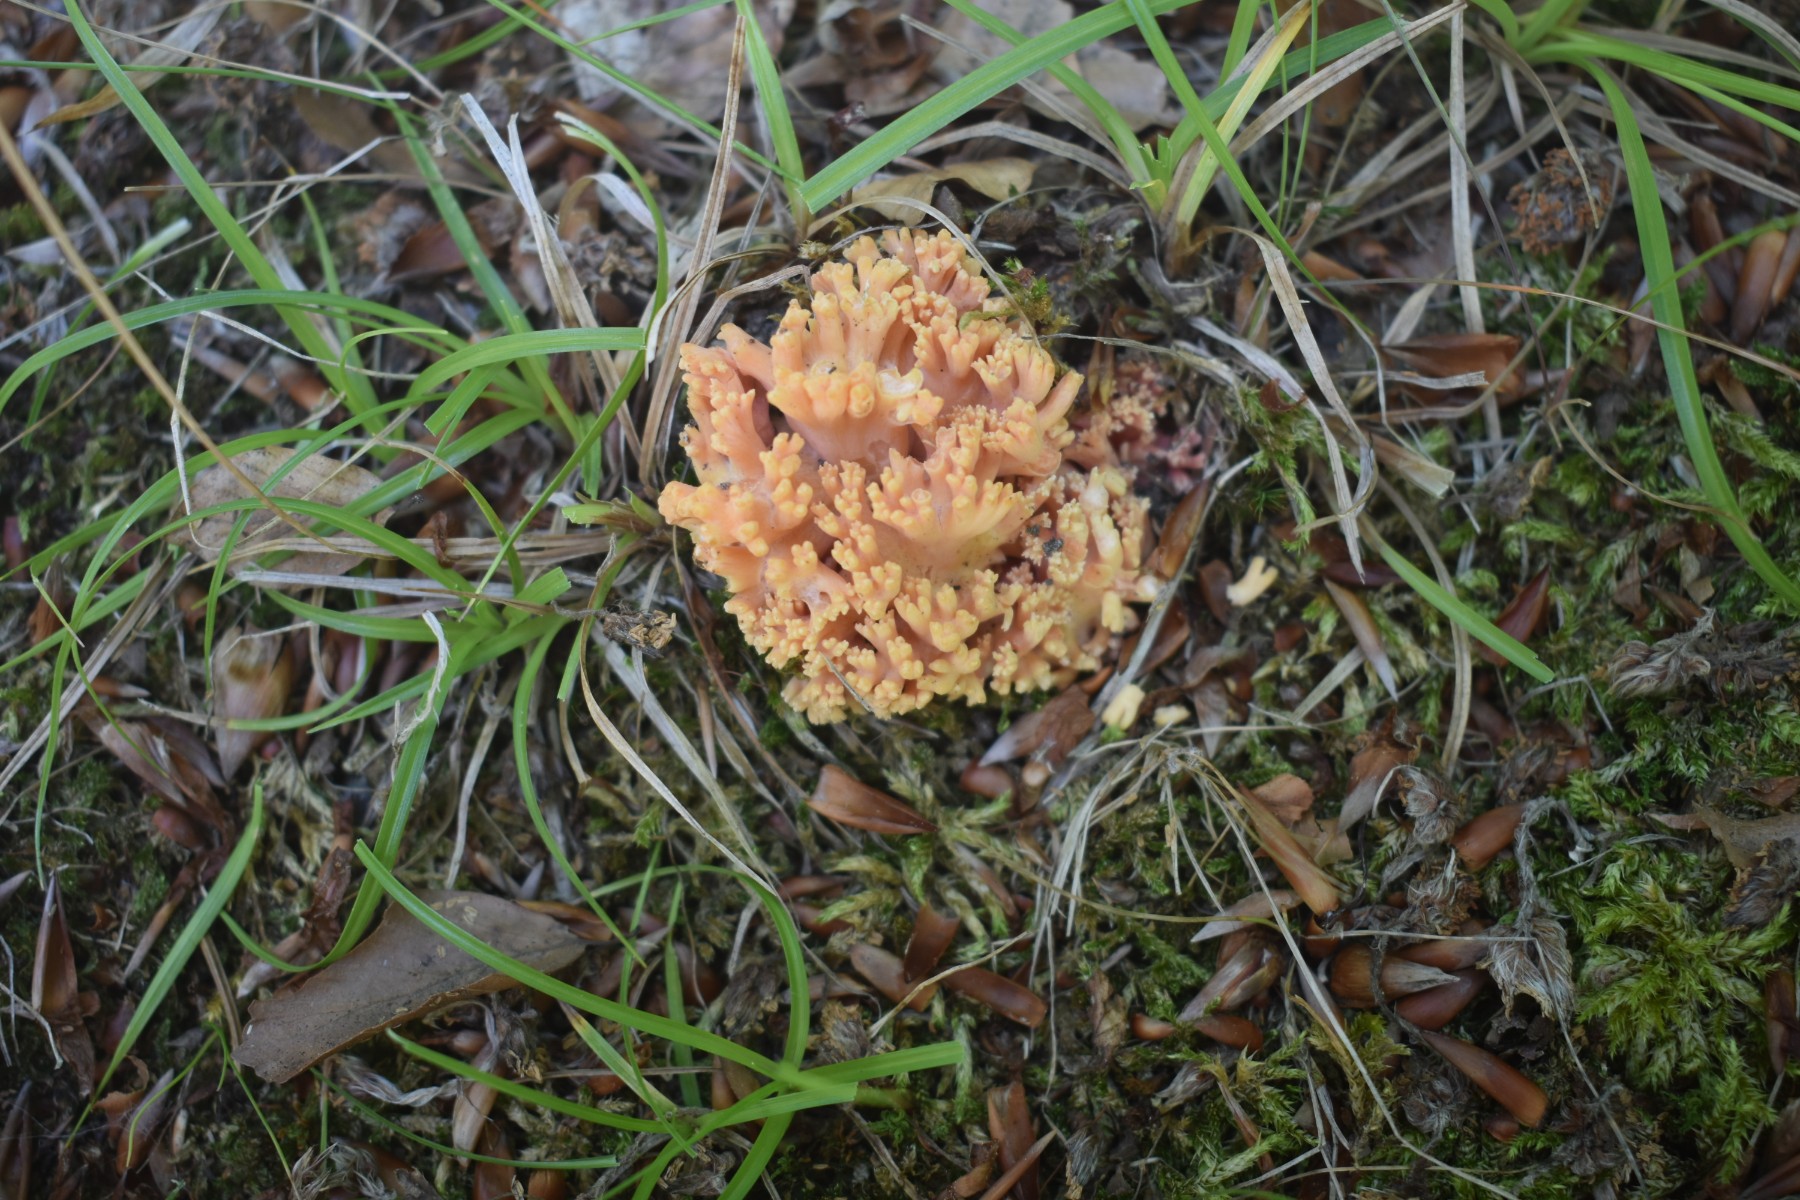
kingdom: Fungi
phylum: Basidiomycota
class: Agaricomycetes
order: Gomphales
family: Gomphaceae
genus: Ramaria
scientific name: Ramaria fagetorum
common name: abrikos-koralsvamp
